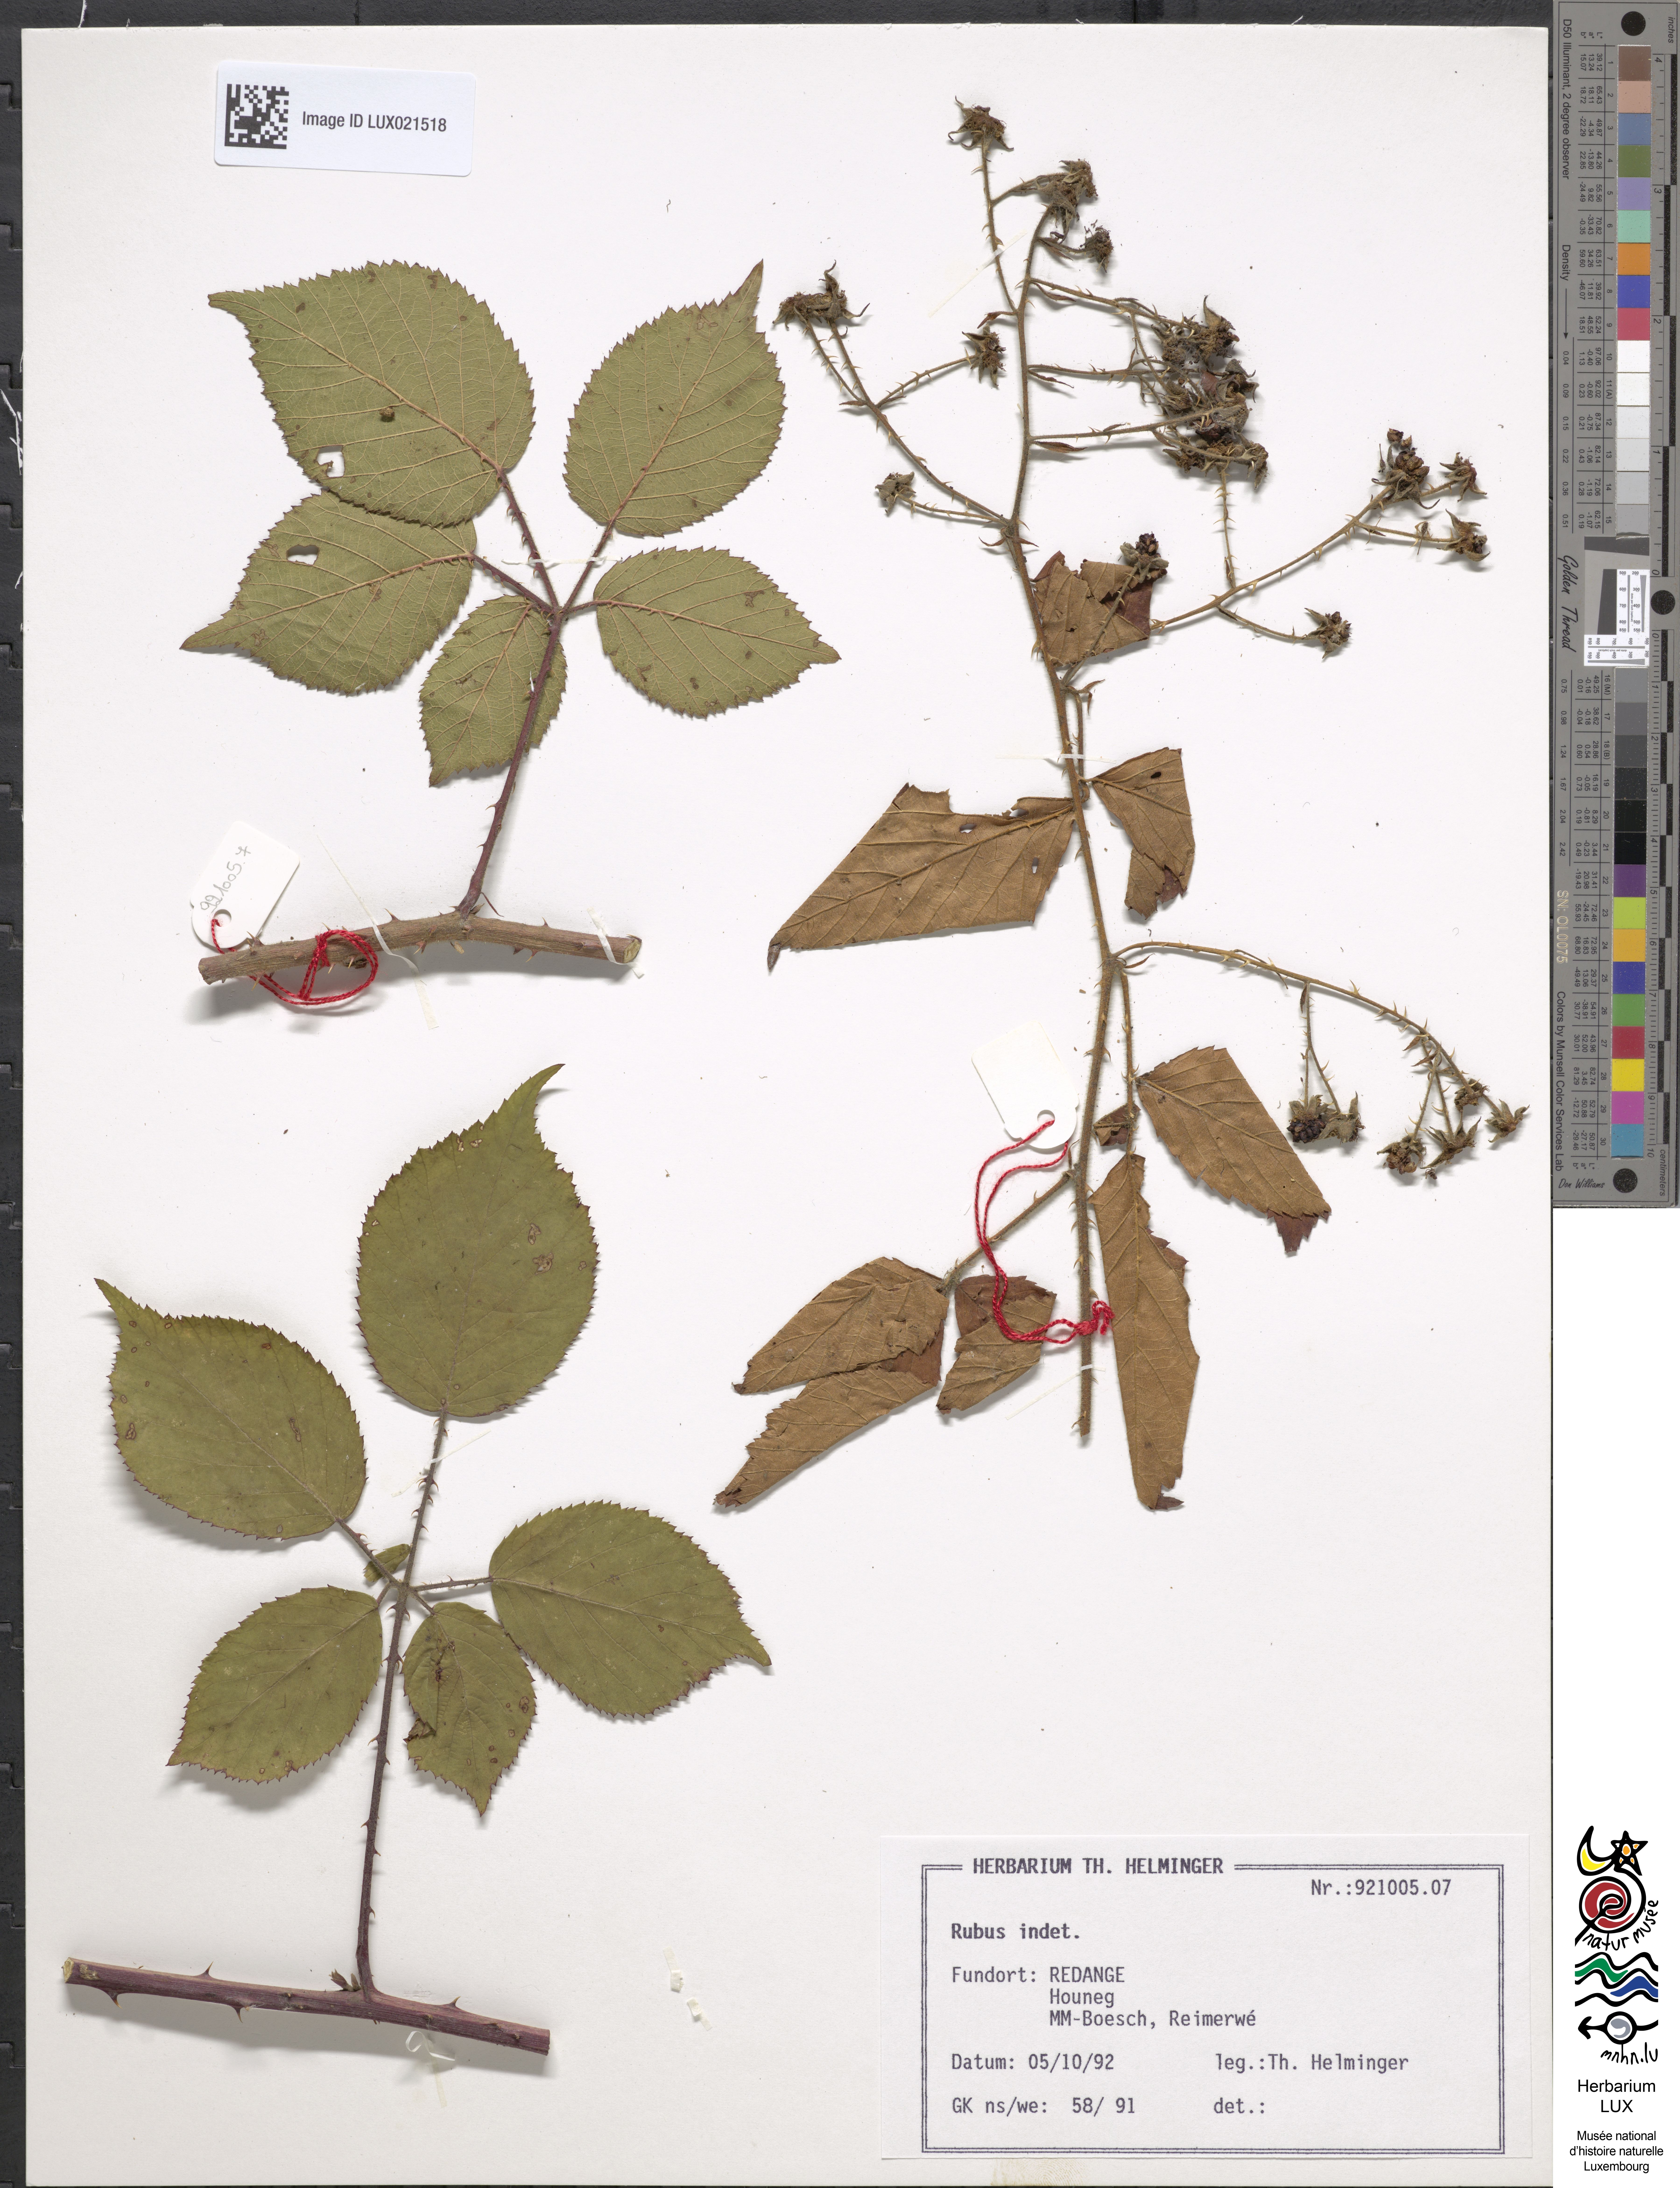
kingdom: Plantae
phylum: Tracheophyta
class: Magnoliopsida
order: Rosales
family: Rosaceae
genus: Rubus
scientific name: Rubus
